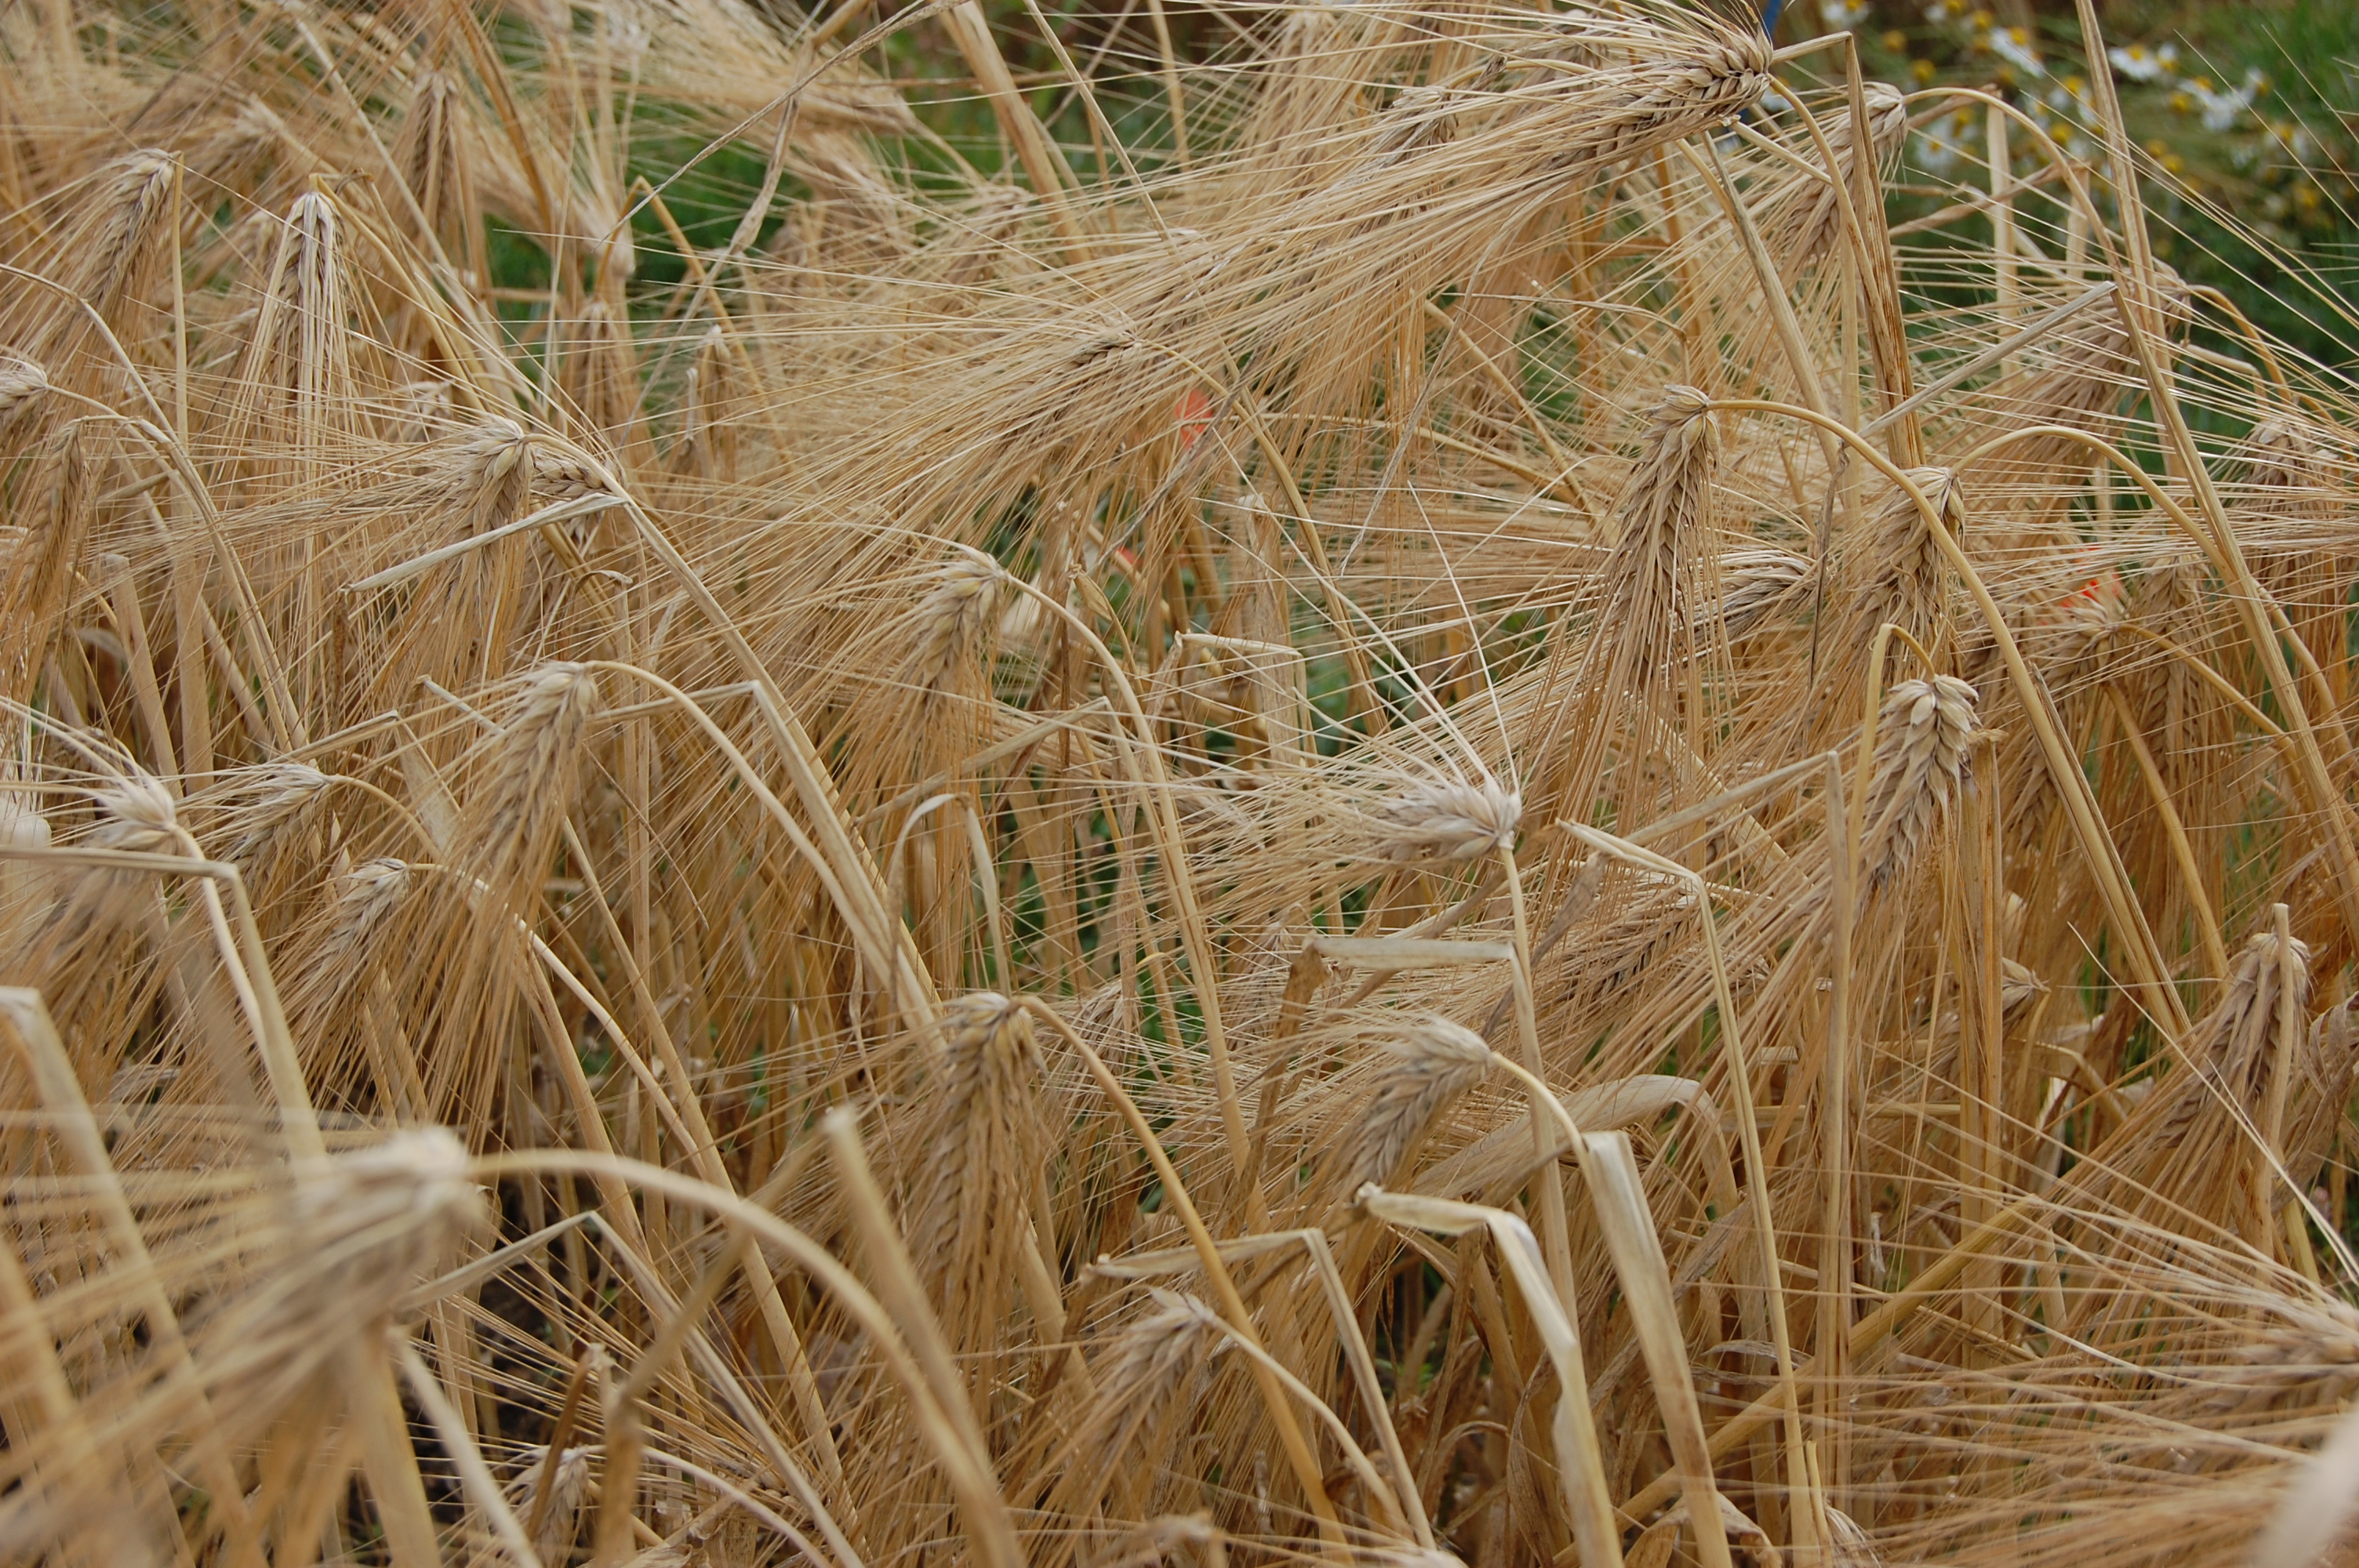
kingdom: Plantae
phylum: Tracheophyta
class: Liliopsida
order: Poales
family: Poaceae
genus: Hordeum
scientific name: Hordeum vulgare
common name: Common barley
